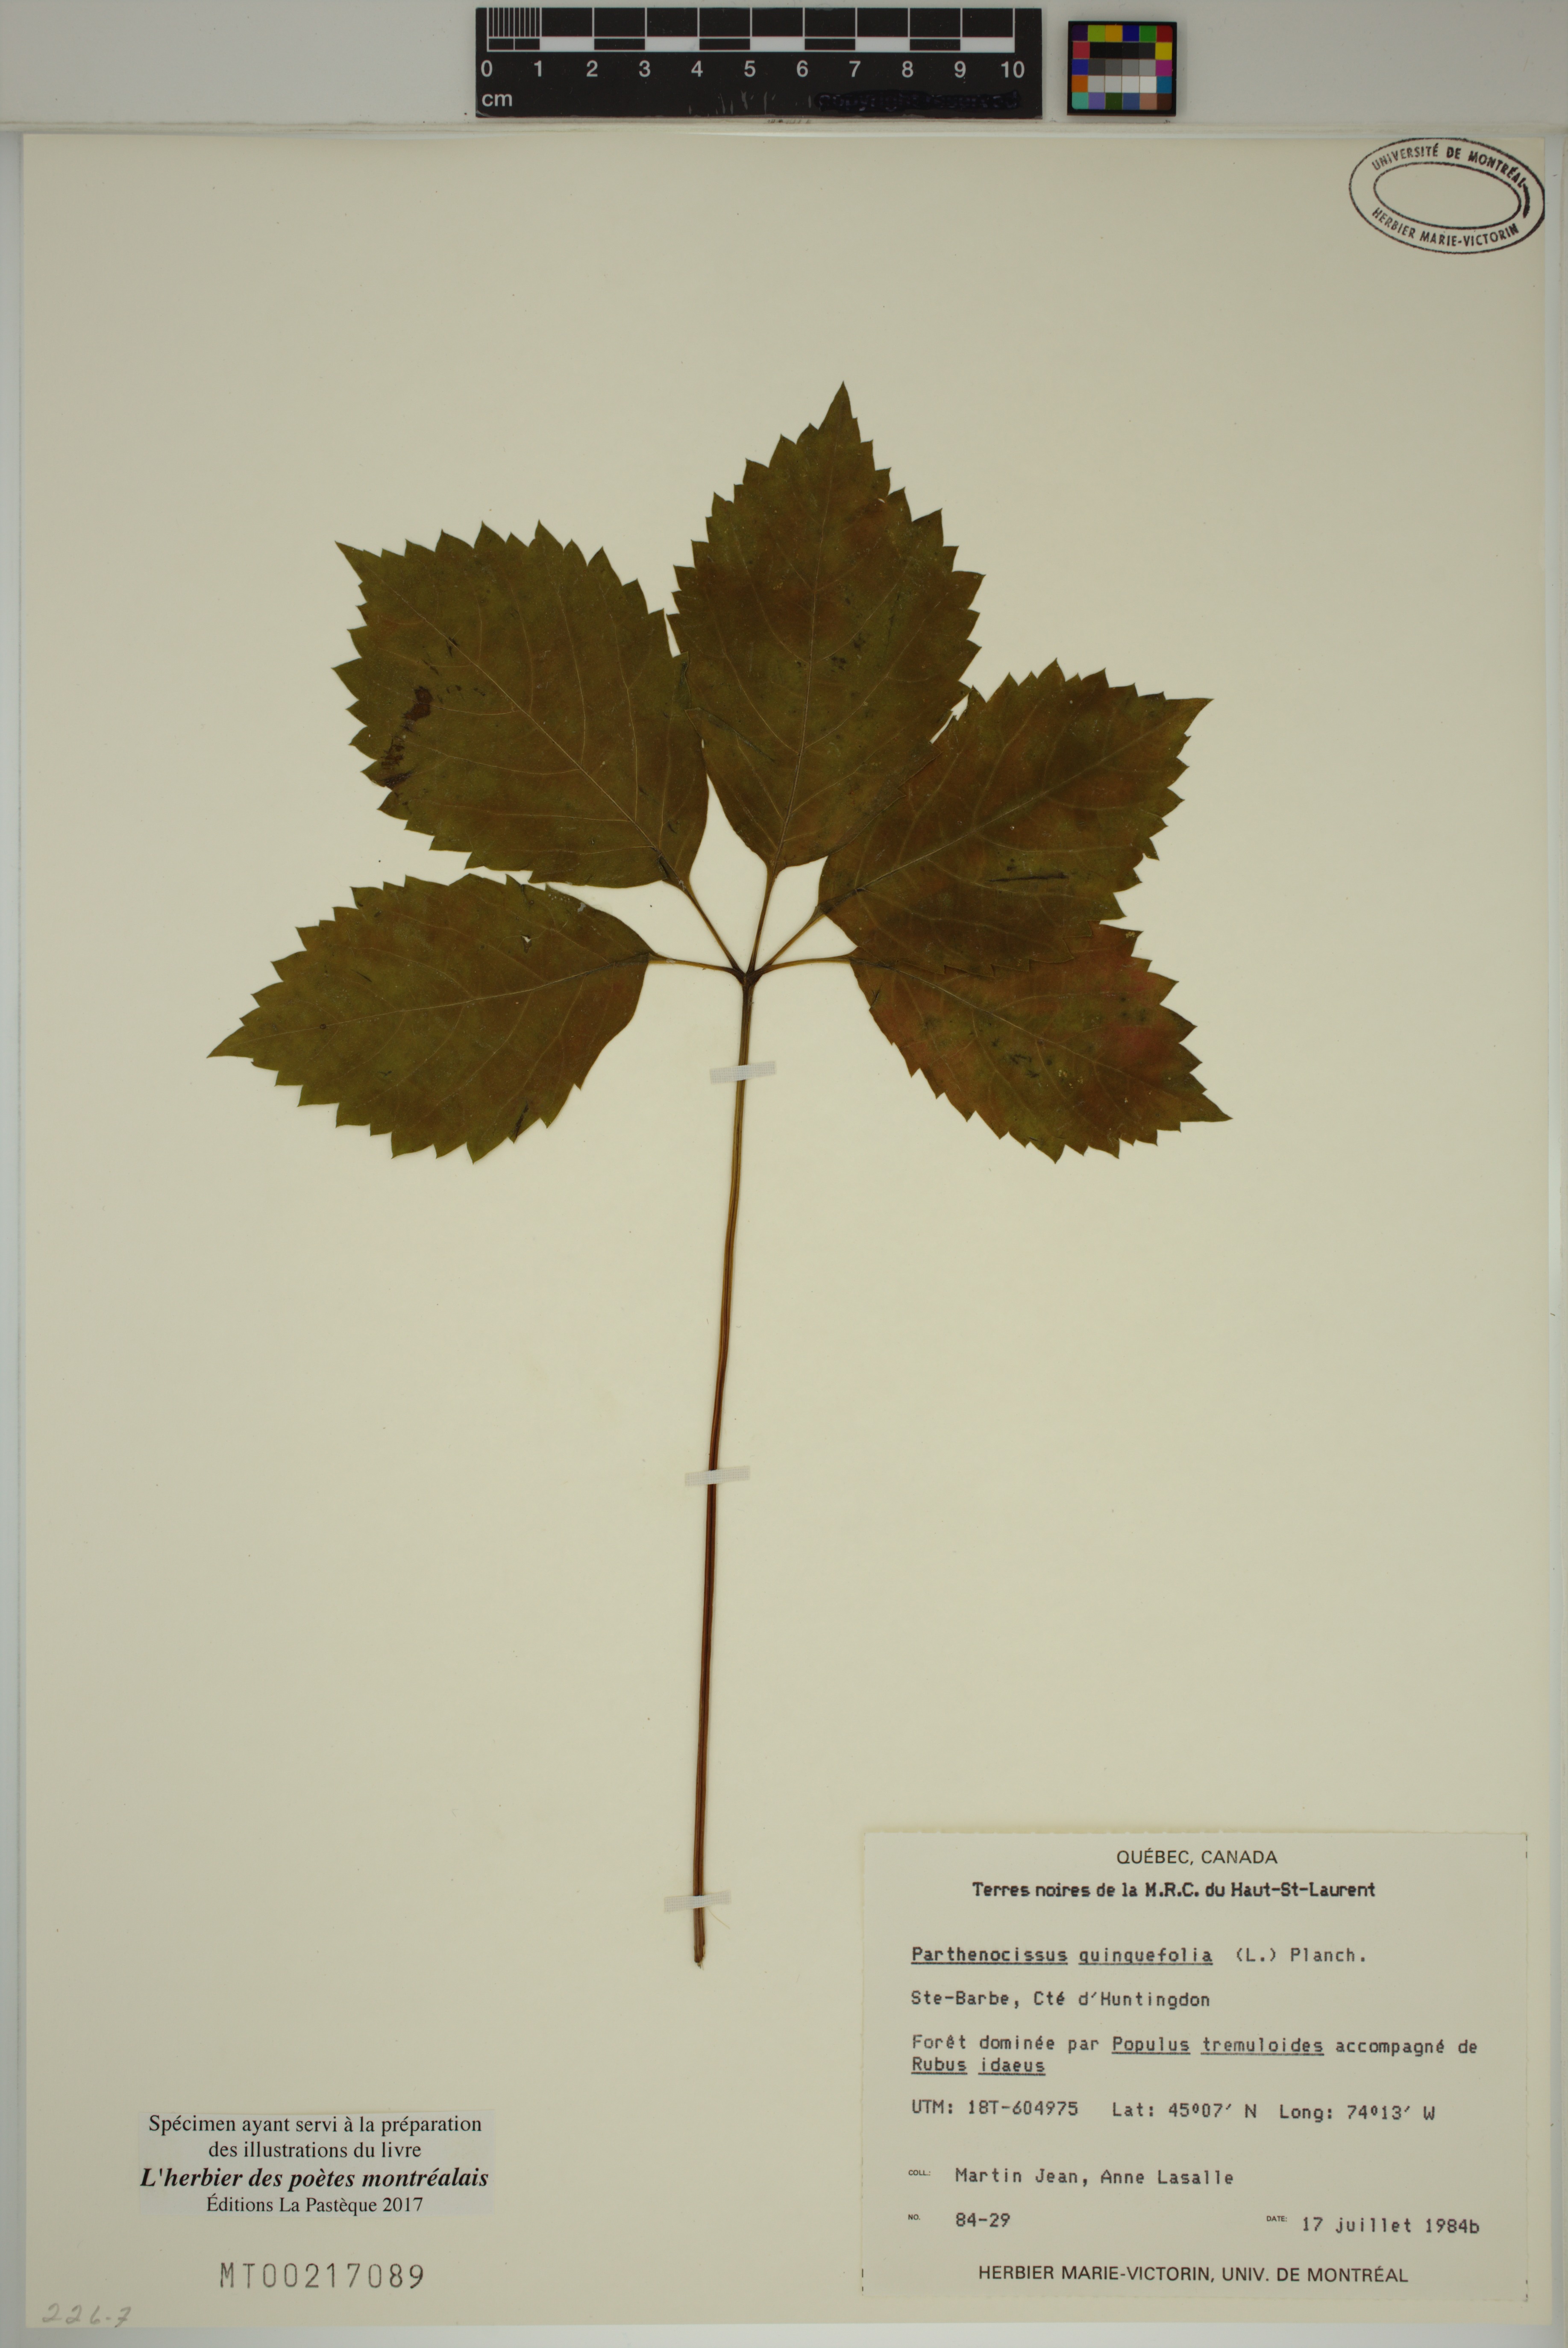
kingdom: Plantae
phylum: Tracheophyta
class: Magnoliopsida
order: Vitales
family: Vitaceae
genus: Parthenocissus
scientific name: Parthenocissus quinquefolia
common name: Virginia-creeper
